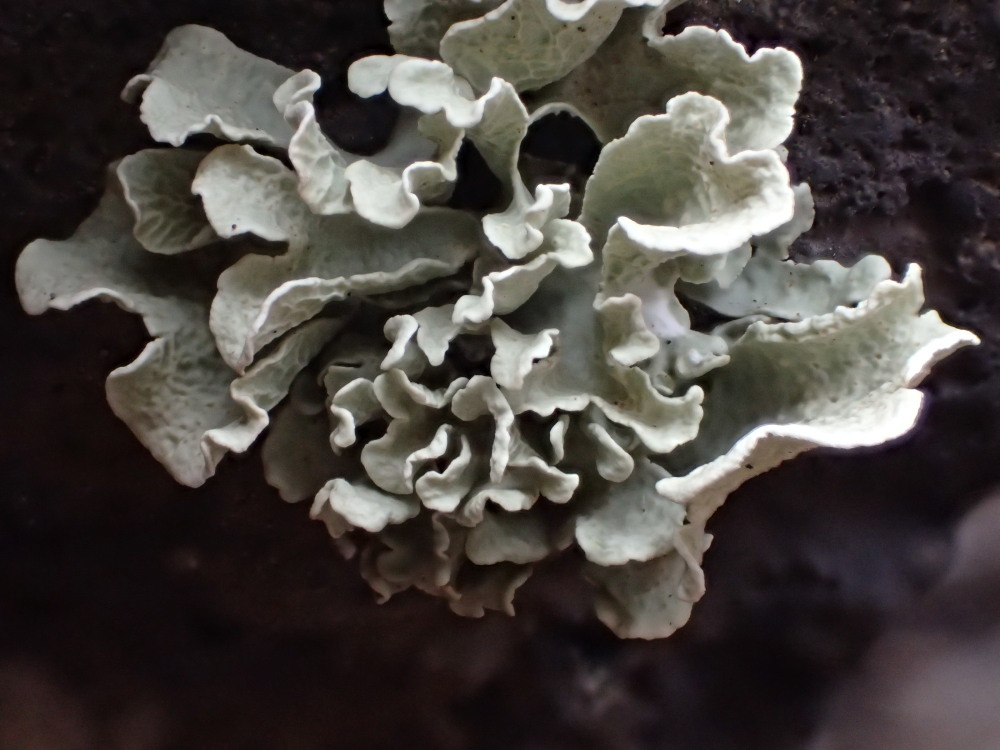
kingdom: Fungi
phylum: Ascomycota
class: Lecanoromycetes
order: Lecanorales
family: Ramalinaceae
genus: Ramalina
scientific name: Ramalina
